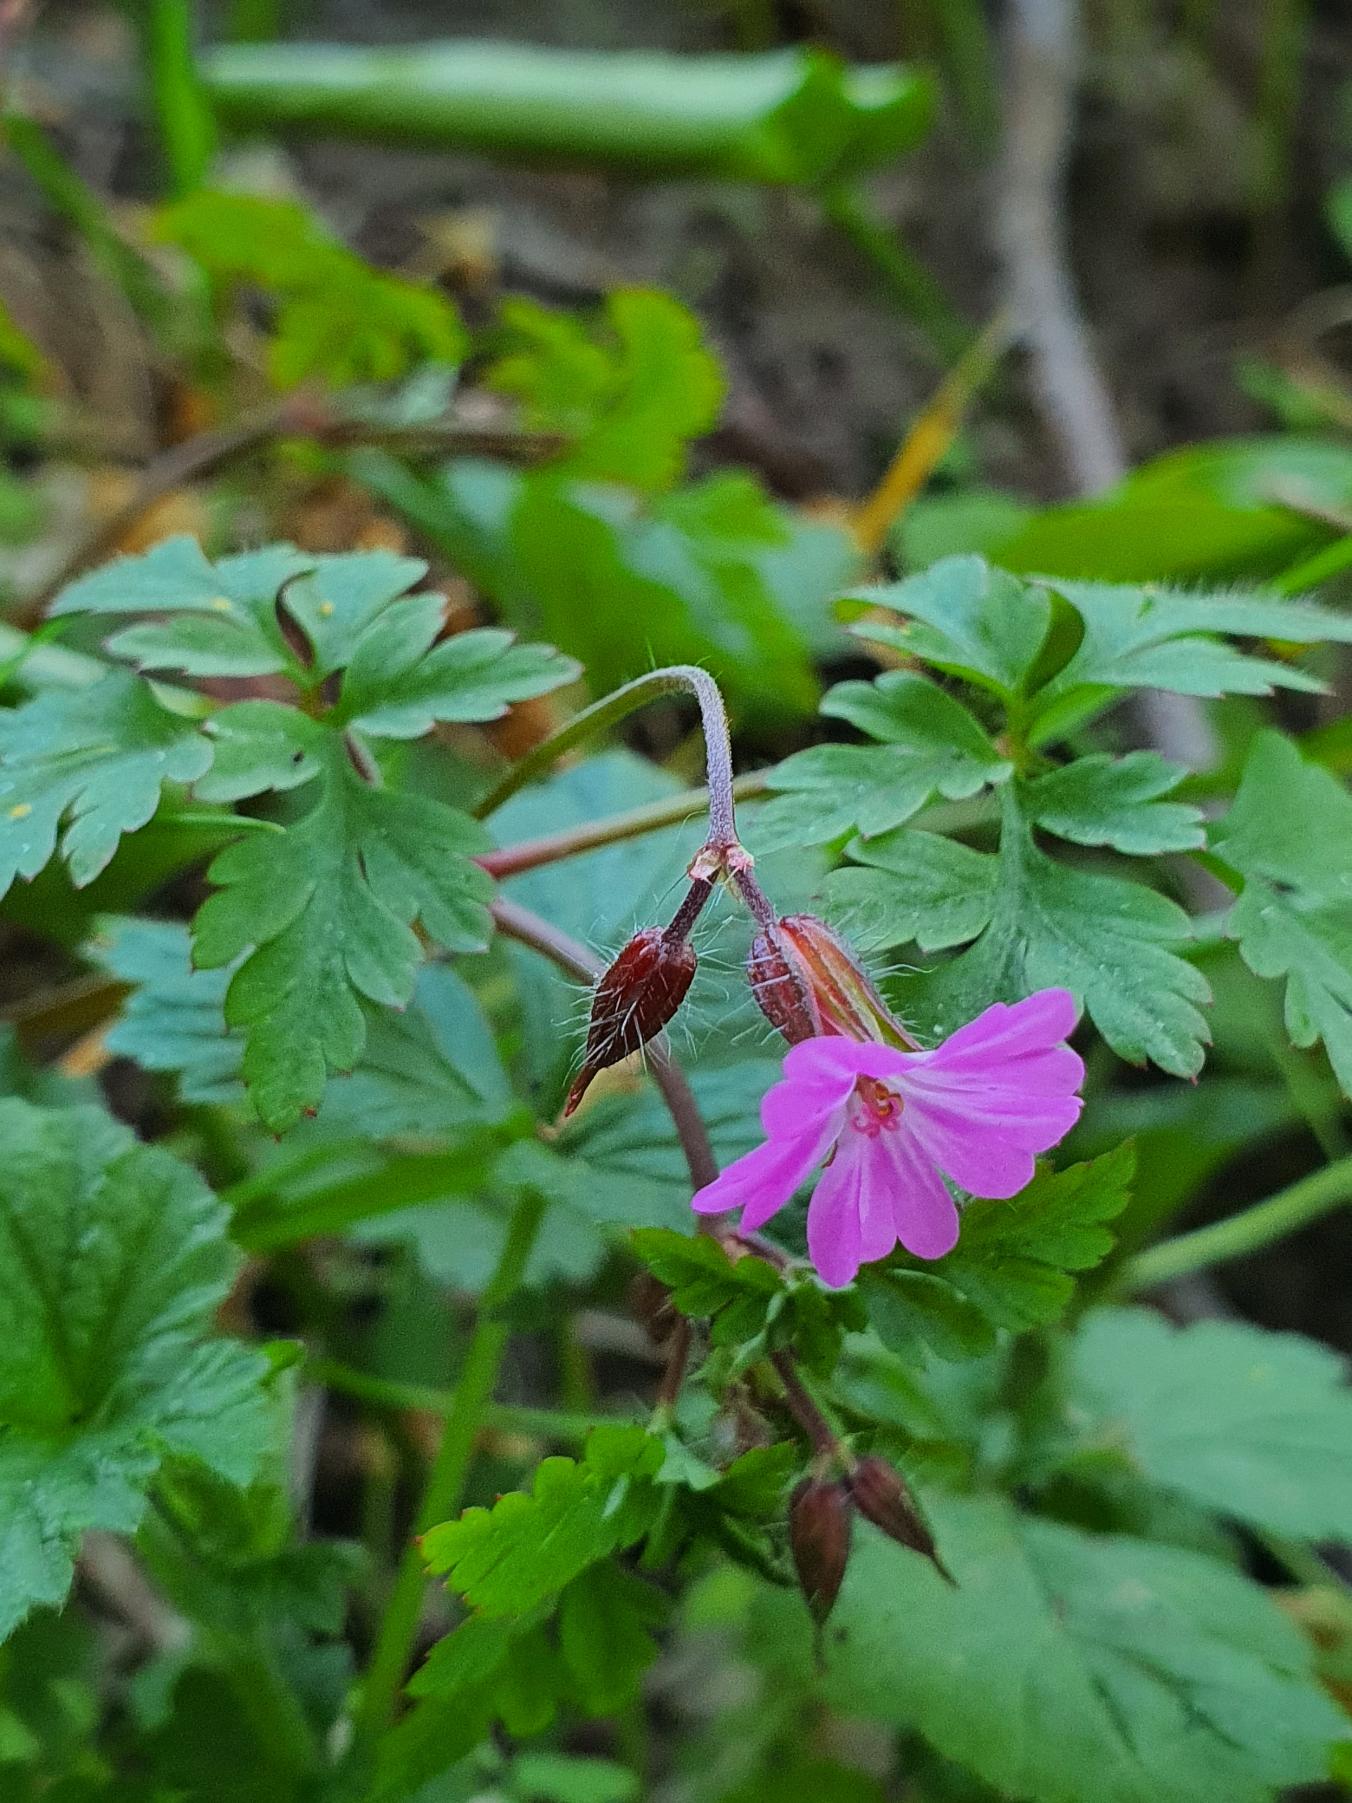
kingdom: Plantae
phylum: Tracheophyta
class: Magnoliopsida
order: Geraniales
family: Geraniaceae
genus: Geranium
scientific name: Geranium robertianum
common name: Stinkende storkenæb
